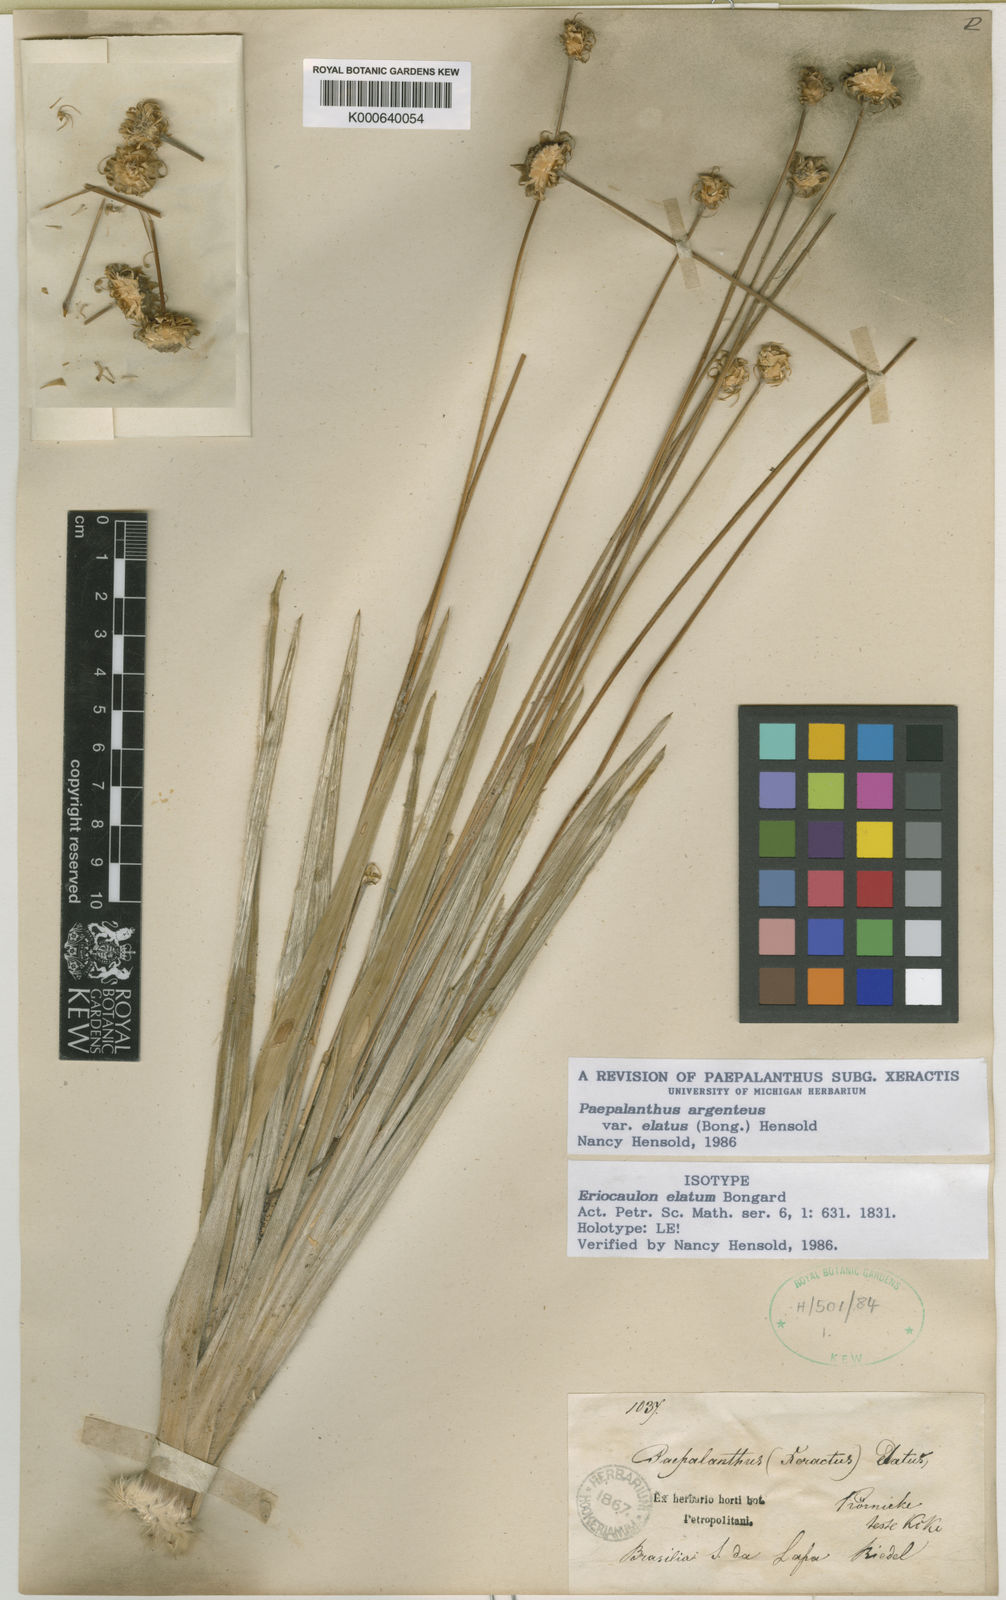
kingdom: Plantae
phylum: Tracheophyta
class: Liliopsida
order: Poales
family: Eriocaulaceae
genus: Paepalanthus
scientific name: Paepalanthus
